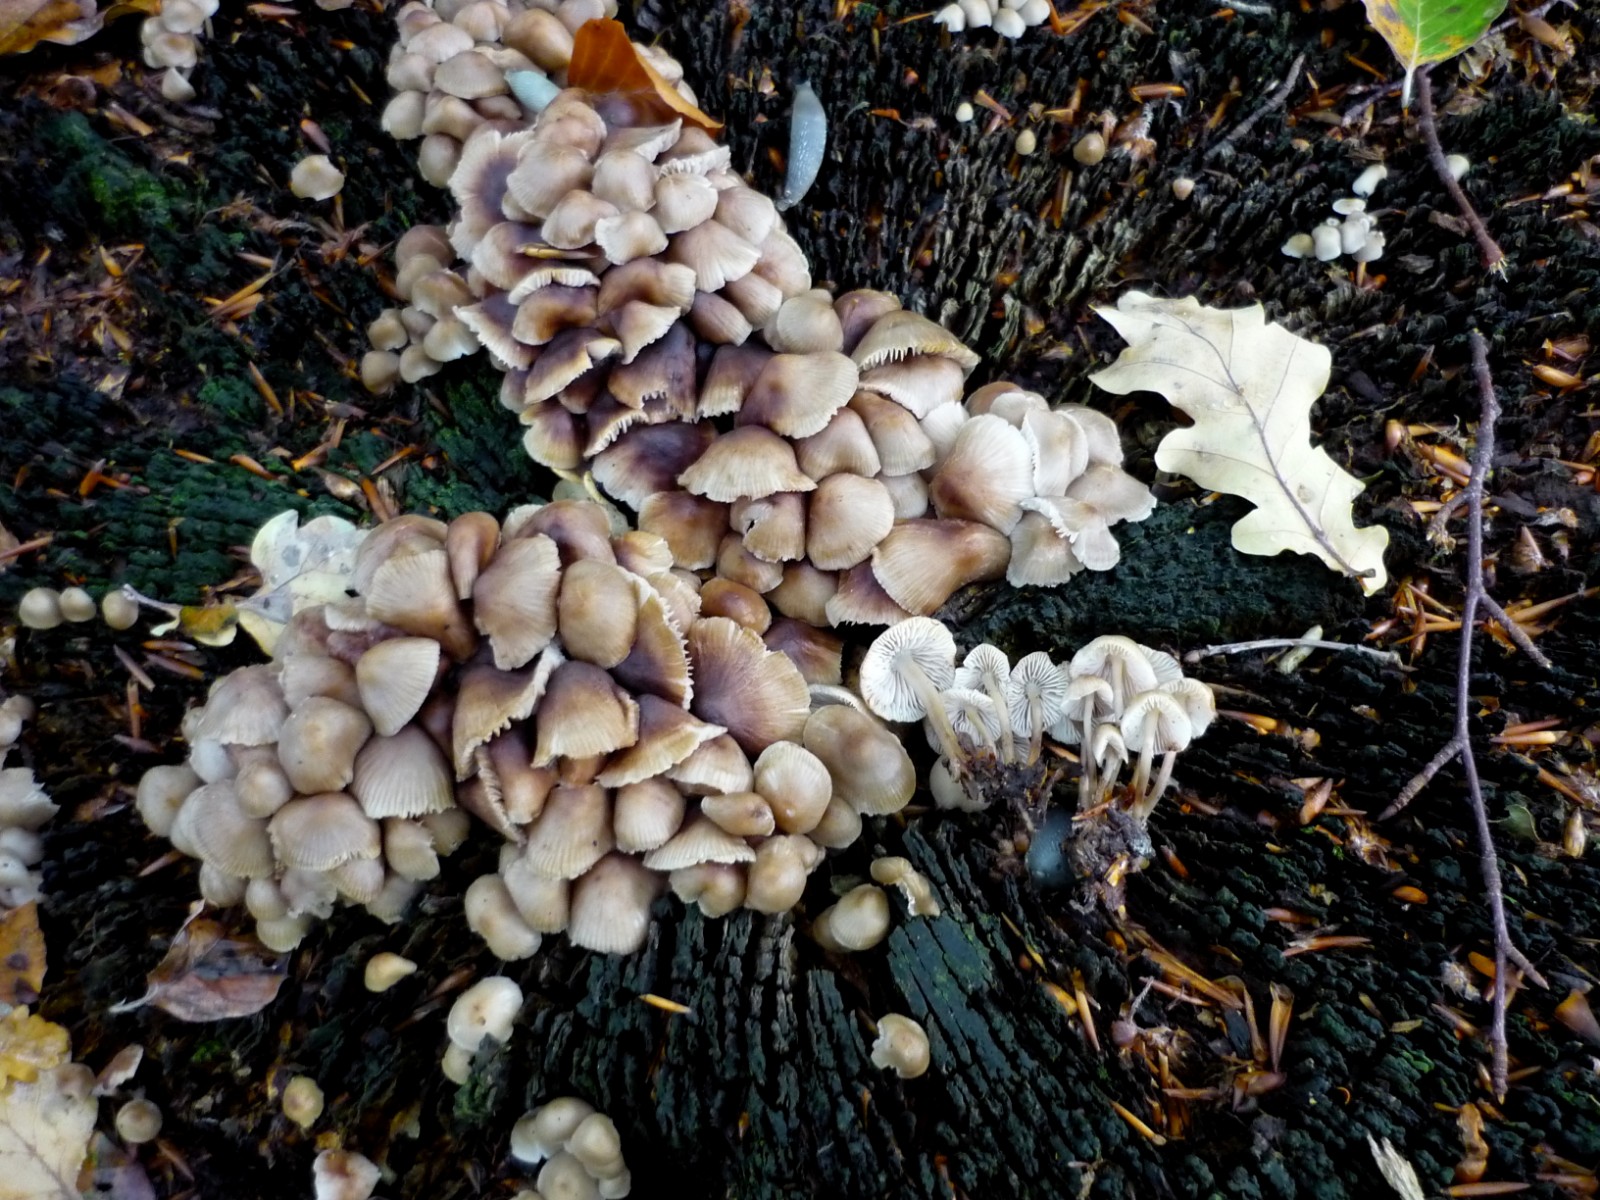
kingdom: Fungi
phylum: Basidiomycota
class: Agaricomycetes
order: Agaricales
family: Mycenaceae
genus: Mycena
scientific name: Mycena maculata
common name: rødplettet huesvamp
